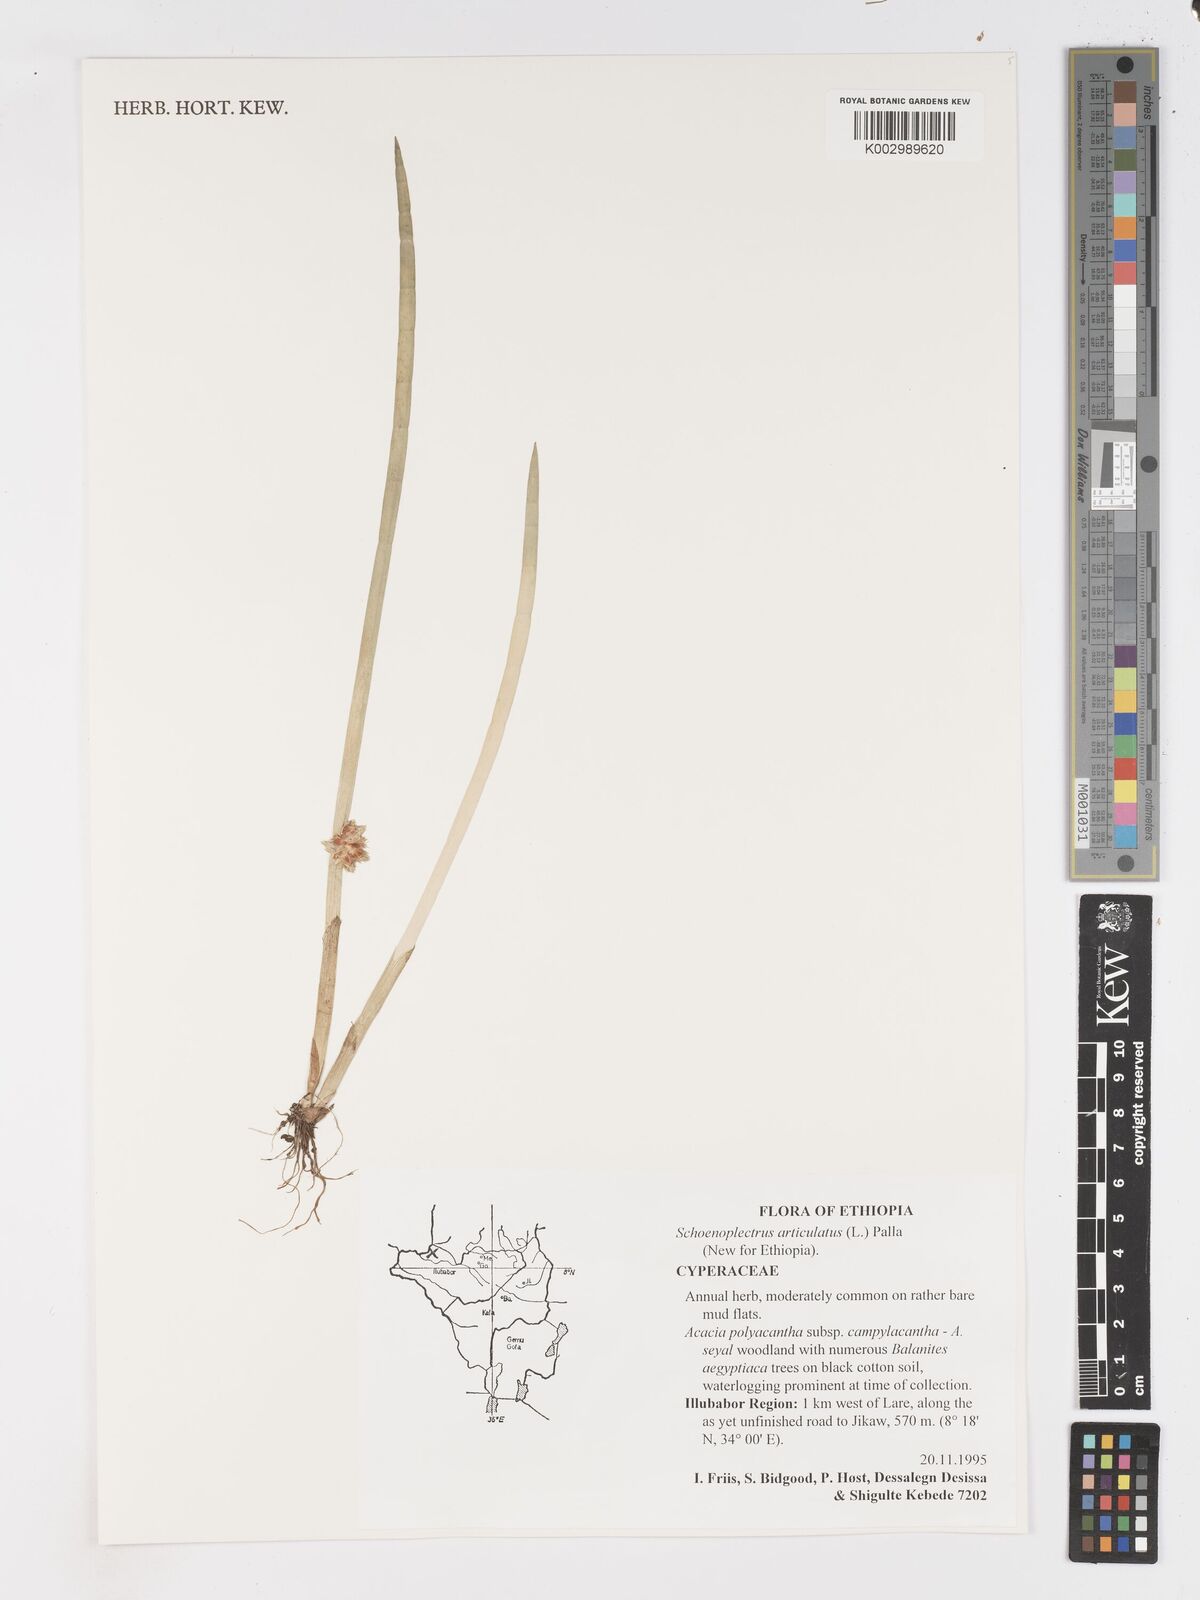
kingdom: Plantae
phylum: Tracheophyta
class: Liliopsida
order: Poales
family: Cyperaceae
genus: Schoenoplectiella
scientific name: Schoenoplectiella articulata
